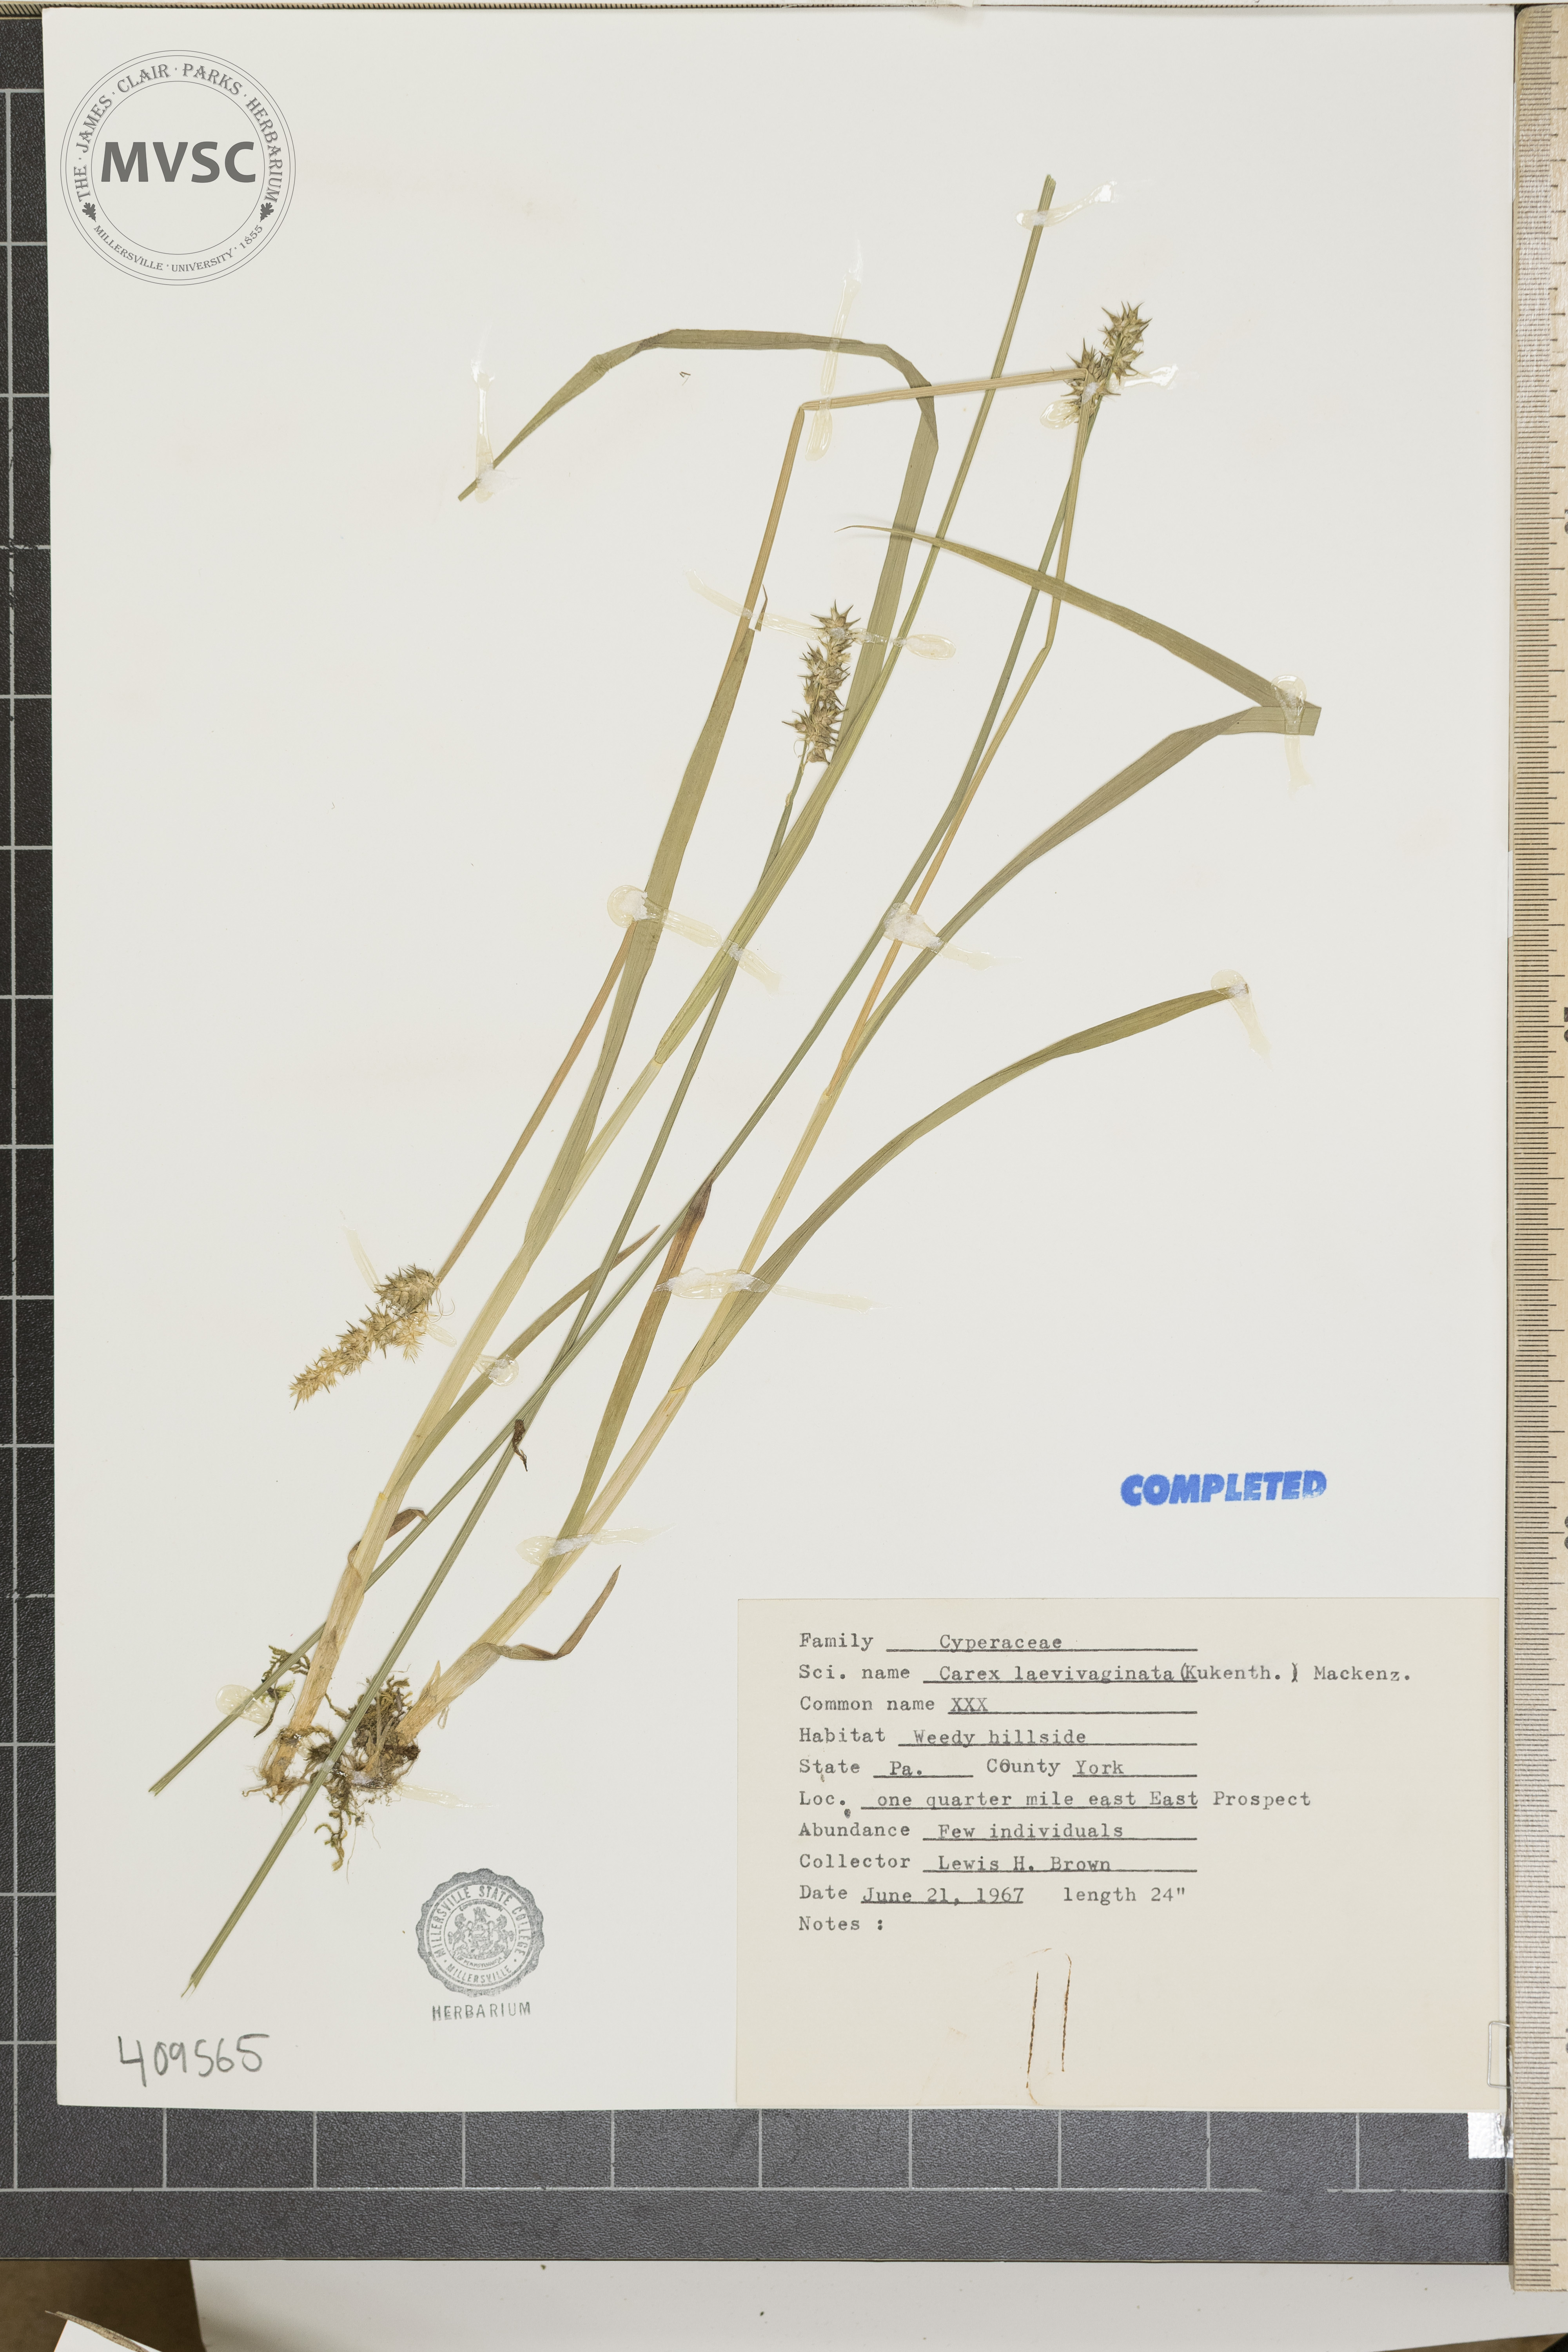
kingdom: Plantae
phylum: Tracheophyta
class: Liliopsida
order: Poales
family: Cyperaceae
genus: Carex
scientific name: Carex laevivaginata
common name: Smooth-sheathed fox sedge
